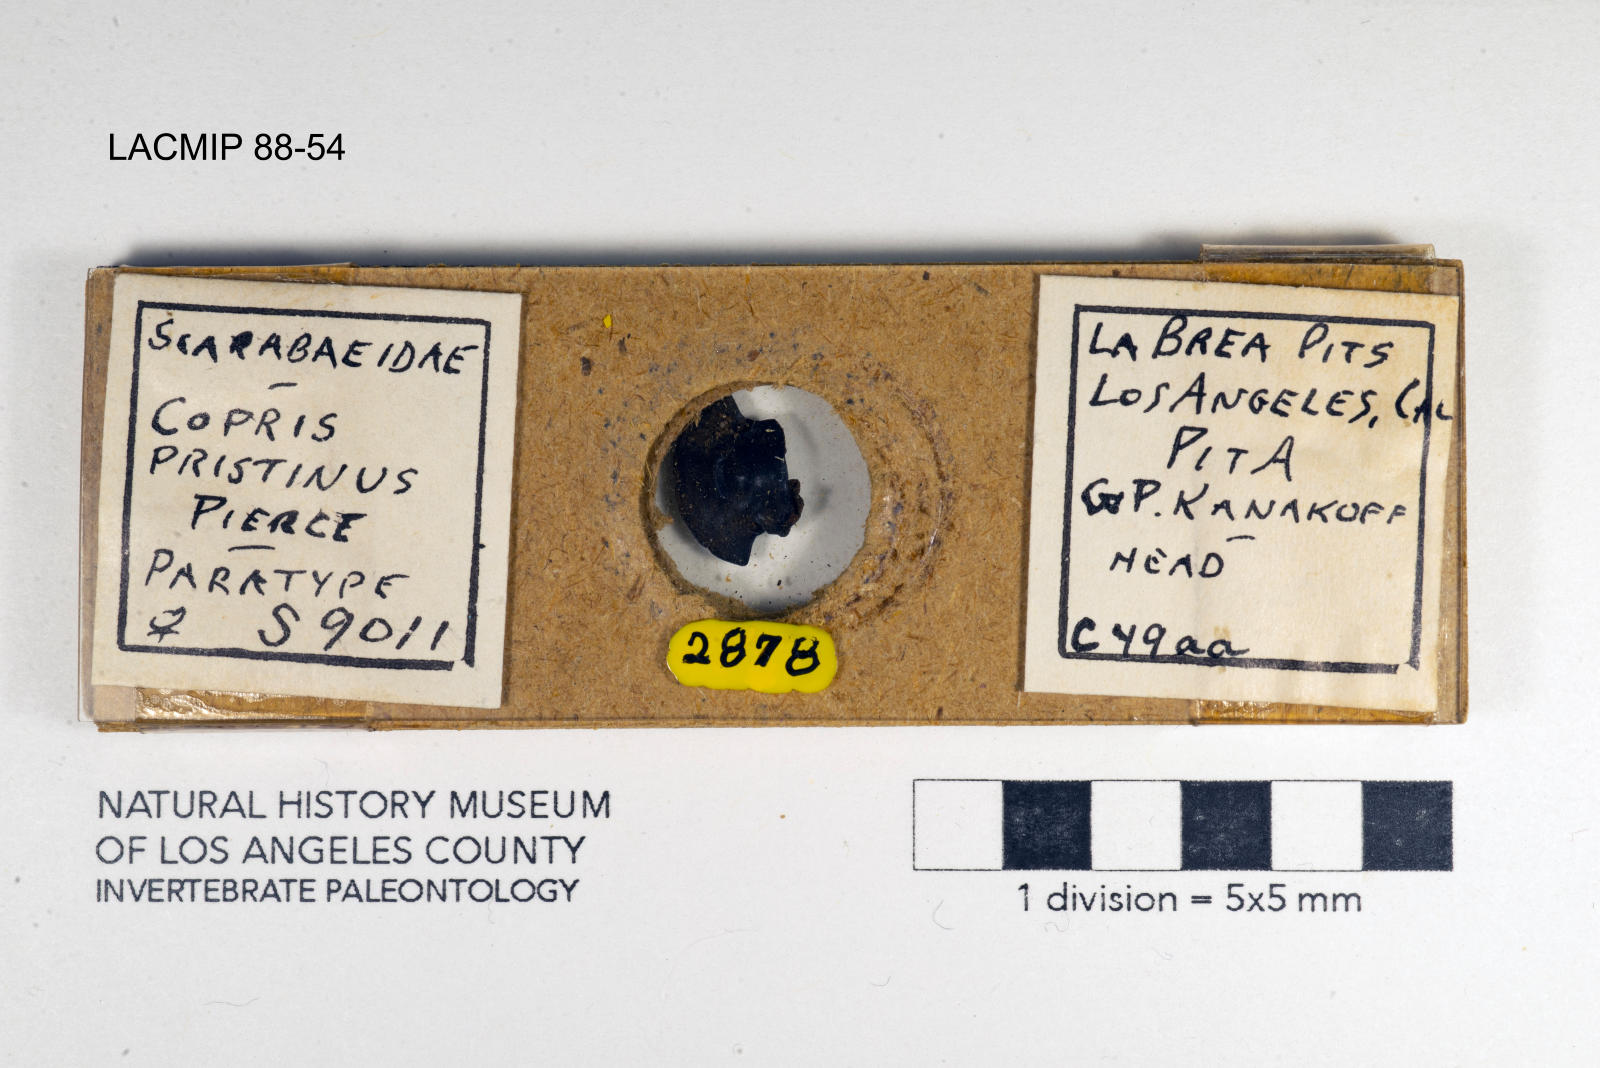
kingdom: Animalia
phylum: Arthropoda
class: Insecta
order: Coleoptera
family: Scarabaeidae
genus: Copris
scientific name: Copris pristinus
